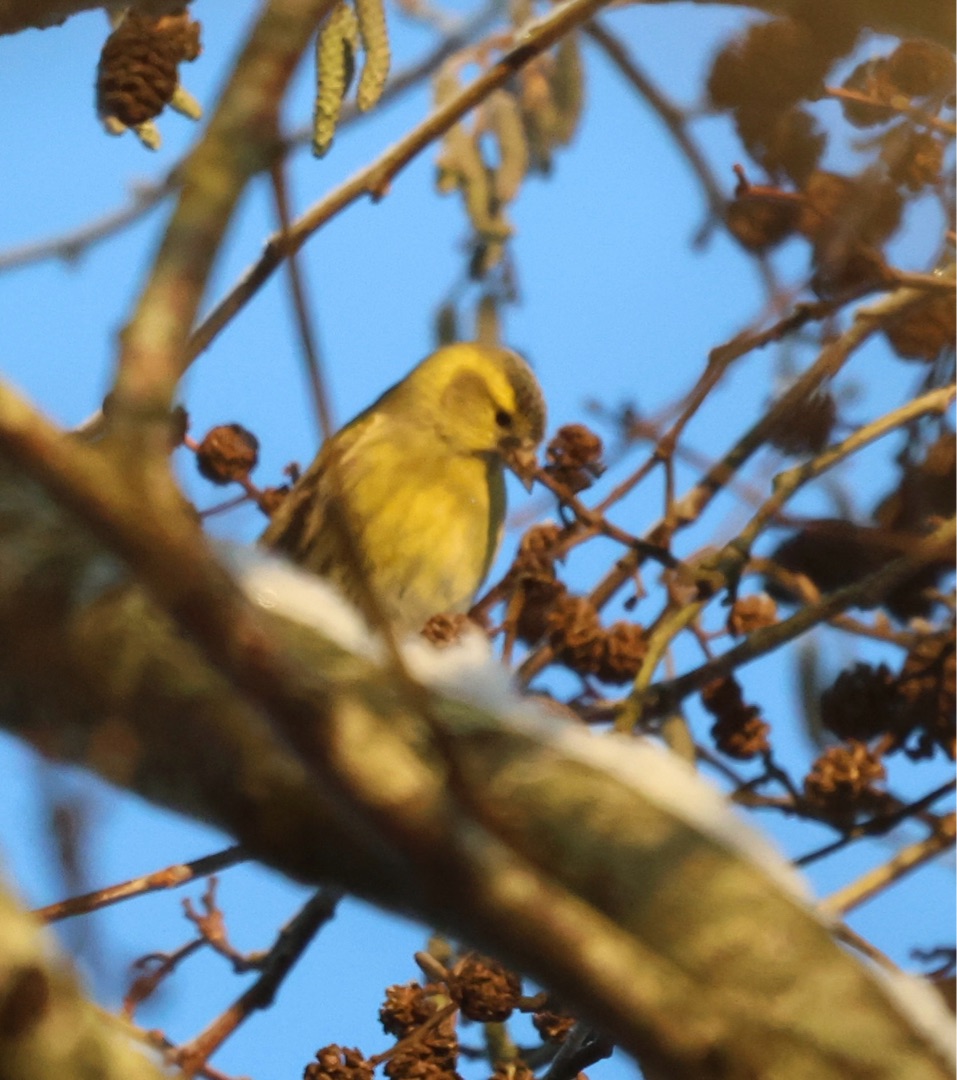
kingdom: Animalia
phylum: Chordata
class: Aves
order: Passeriformes
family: Fringillidae
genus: Spinus
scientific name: Spinus spinus
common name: Grønsisken
